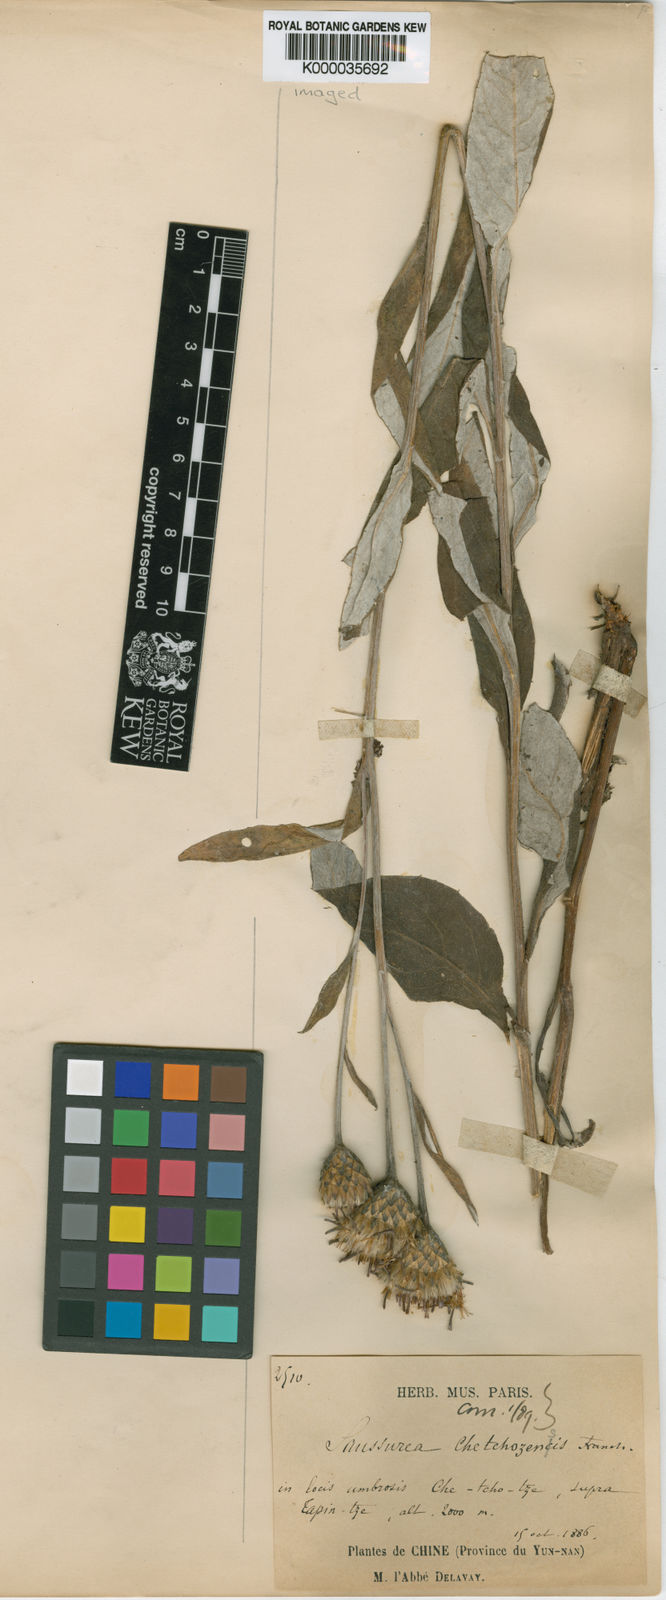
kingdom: Plantae
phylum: Tracheophyta
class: Magnoliopsida
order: Asterales
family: Asteraceae
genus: Saussurea
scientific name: Saussurea chetchozensis
